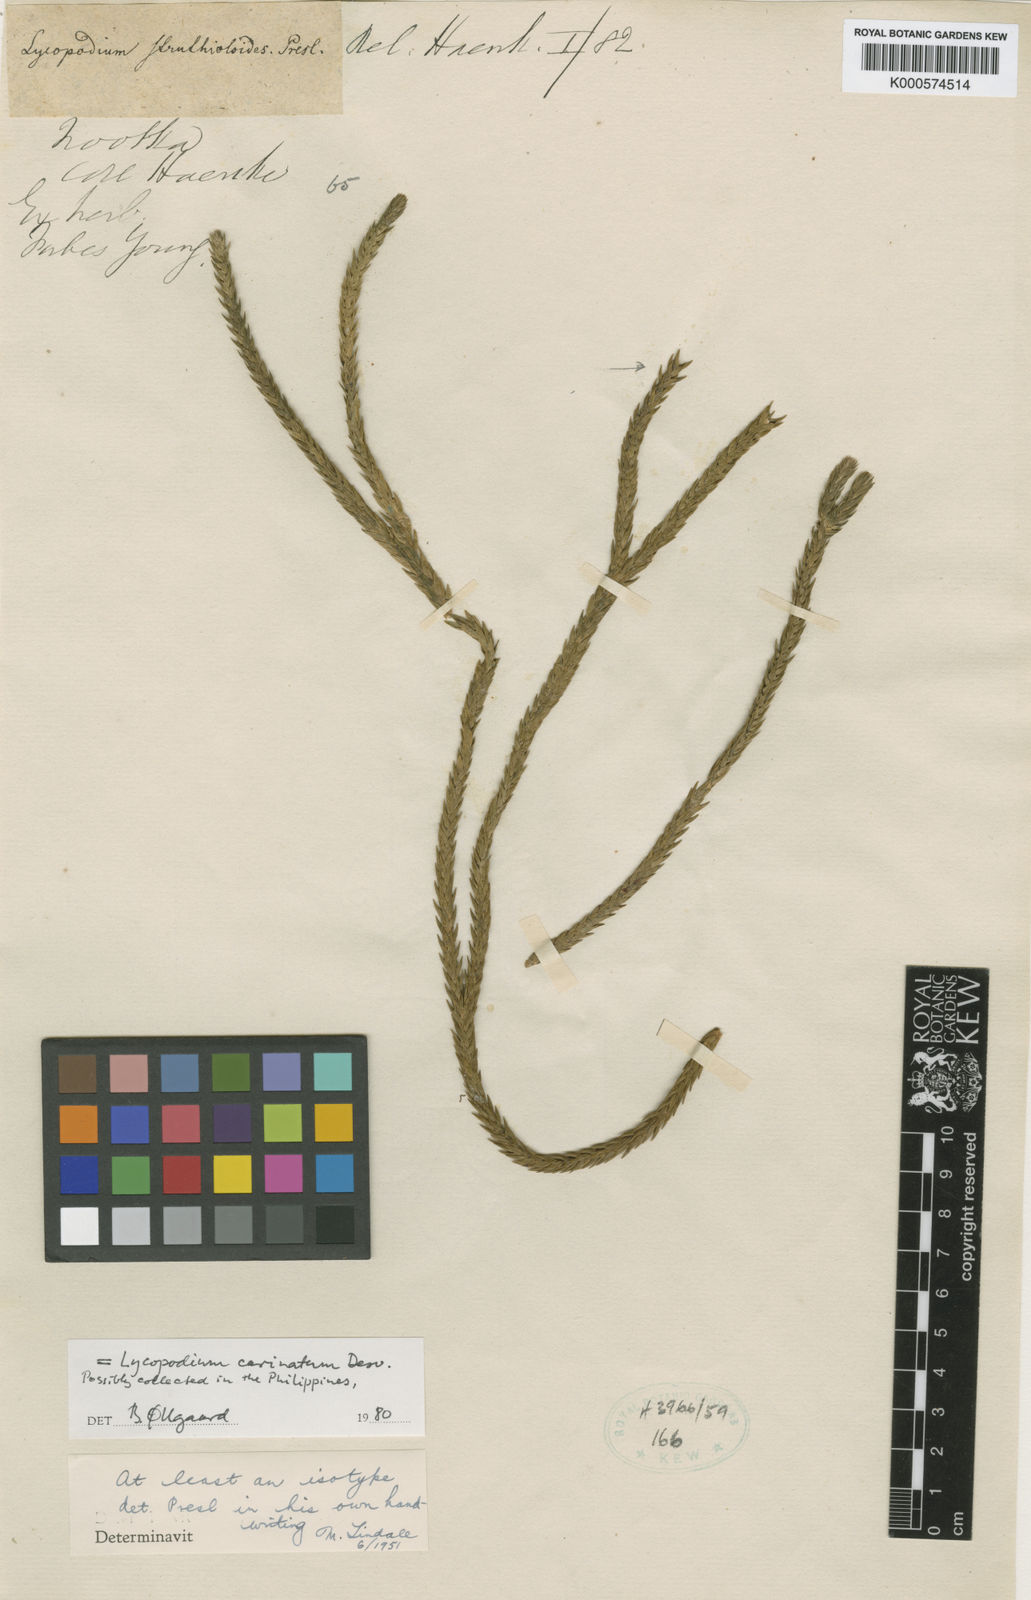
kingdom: Plantae
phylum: Tracheophyta
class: Lycopodiopsida
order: Lycopodiales
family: Lycopodiaceae
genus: Phlegmariurus
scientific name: Phlegmariurus carinatus
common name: Keeled tassel-fern
